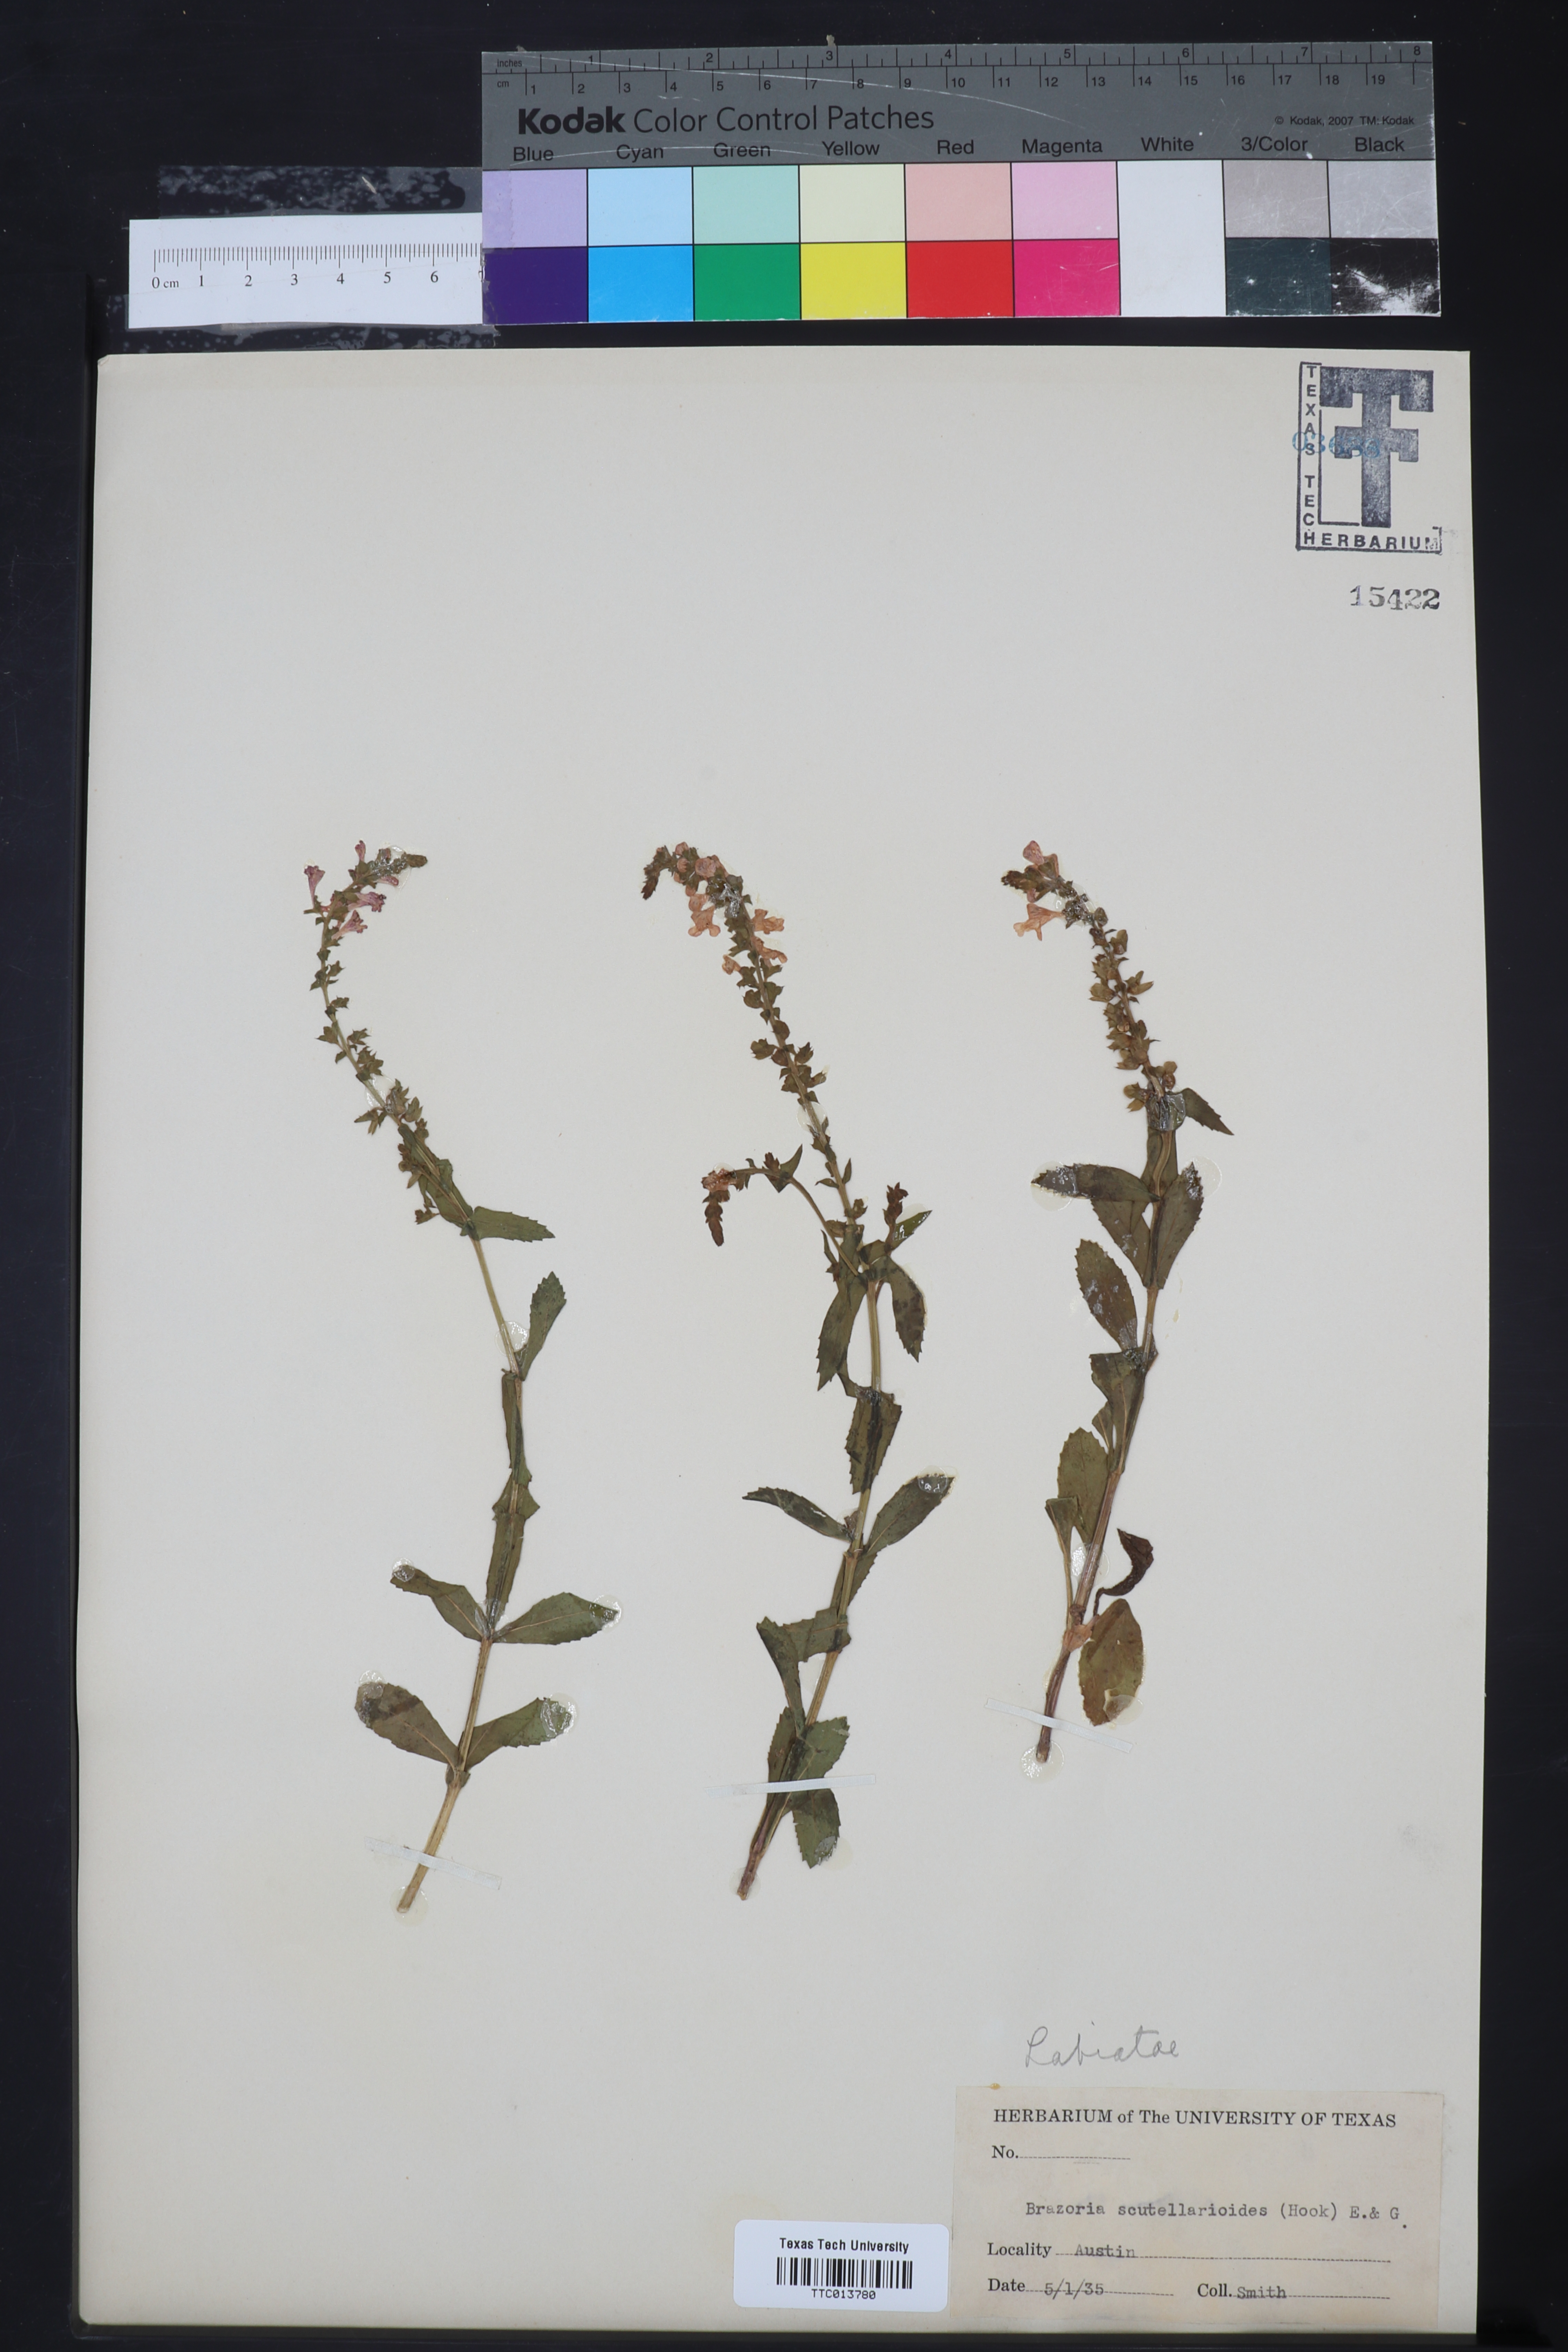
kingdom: Plantae
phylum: Tracheophyta
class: Magnoliopsida
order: Lamiales
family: Lamiaceae
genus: Warnockia
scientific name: Warnockia scutellarioides
